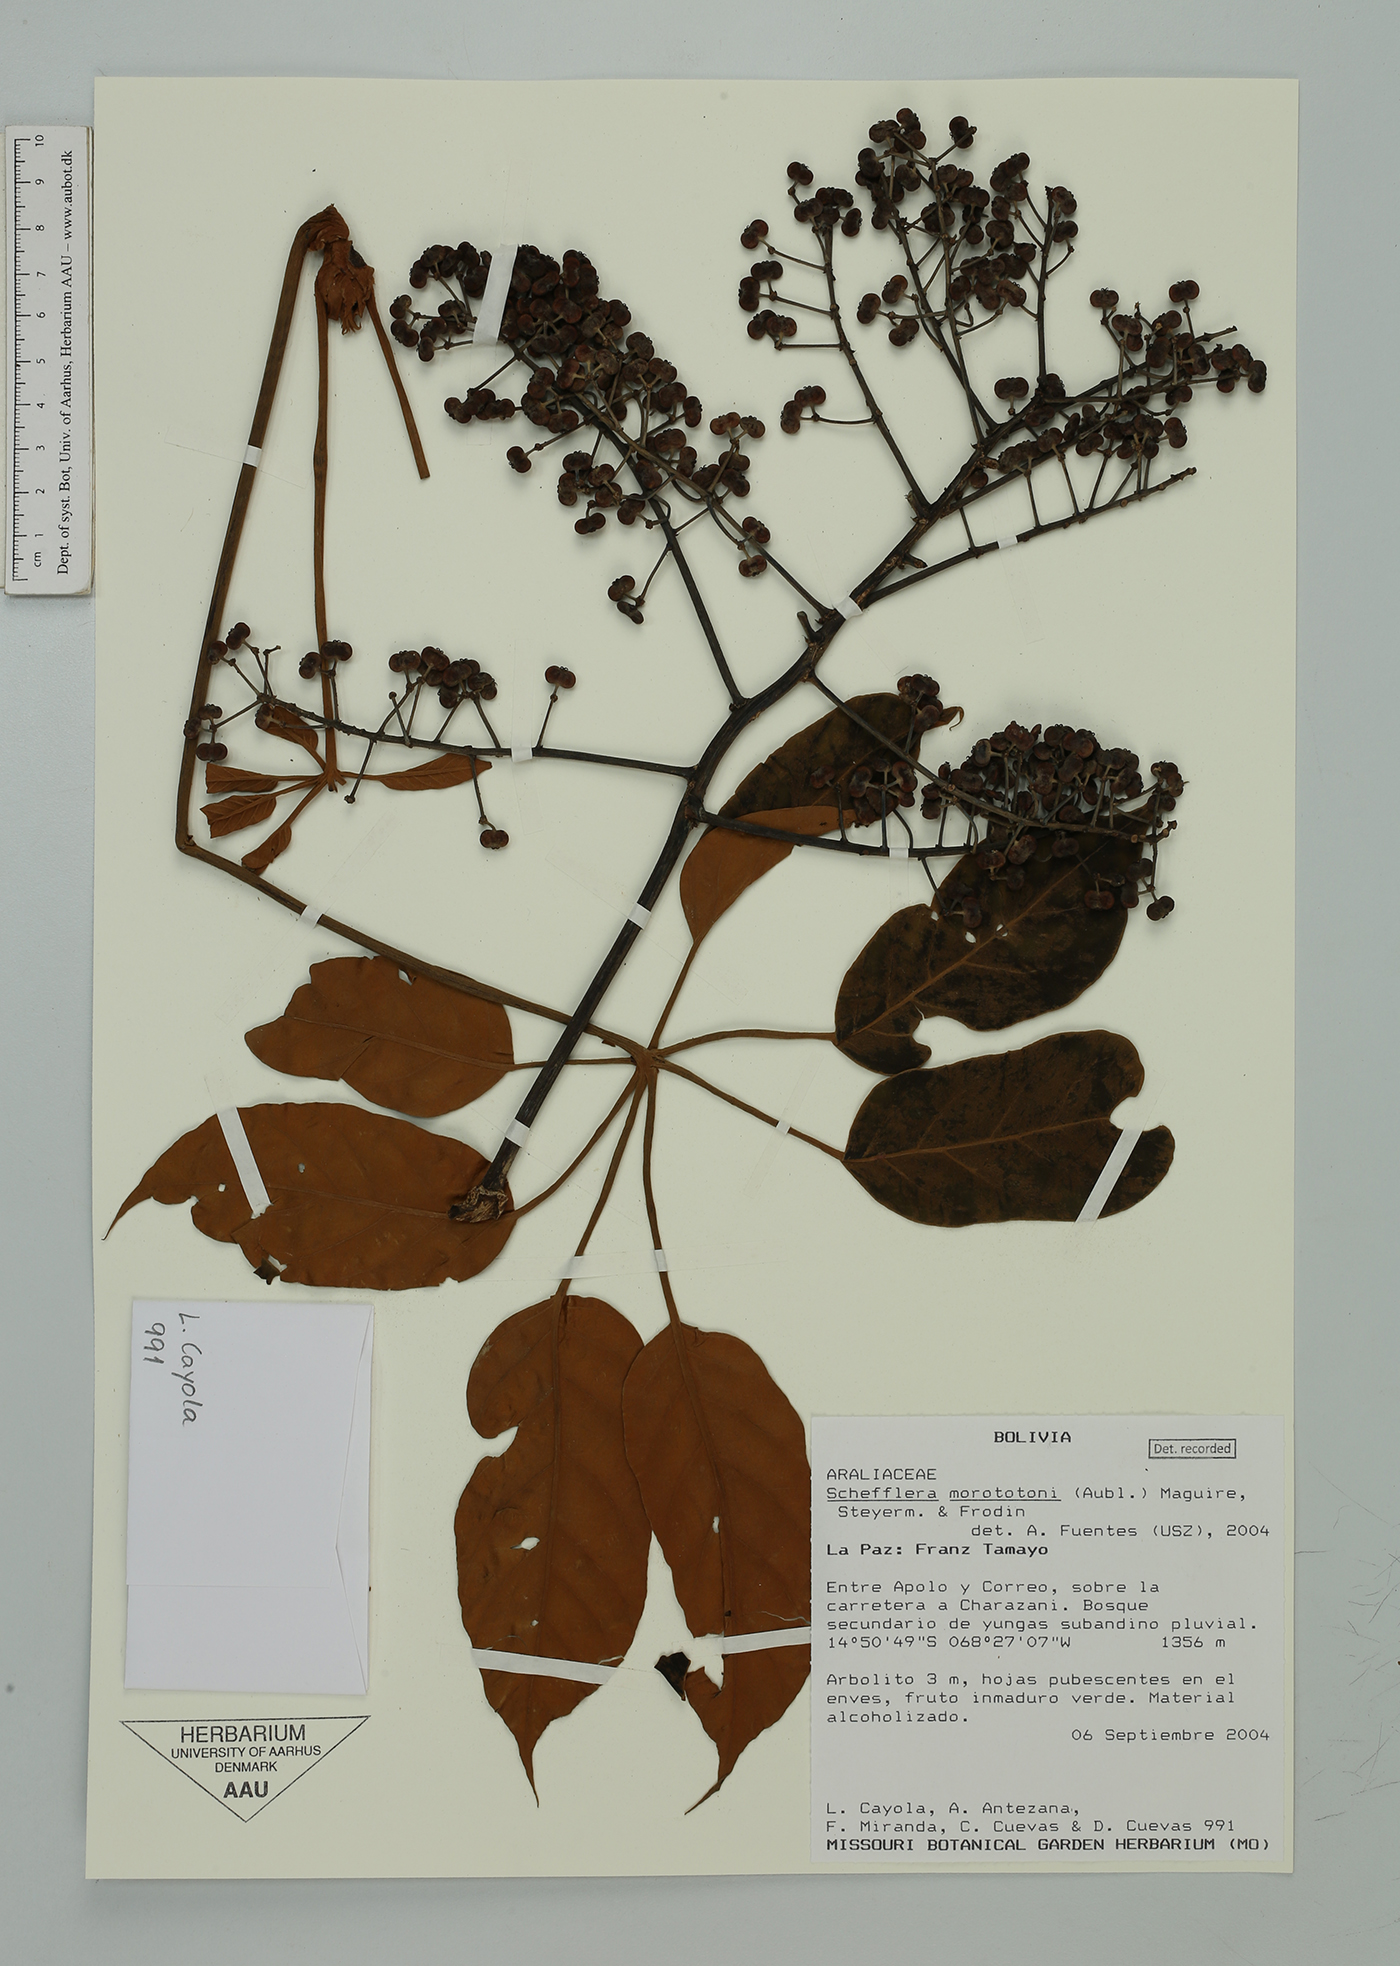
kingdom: Plantae
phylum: Tracheophyta
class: Magnoliopsida
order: Apiales
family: Araliaceae
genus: Didymopanax
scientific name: Didymopanax morototoni
